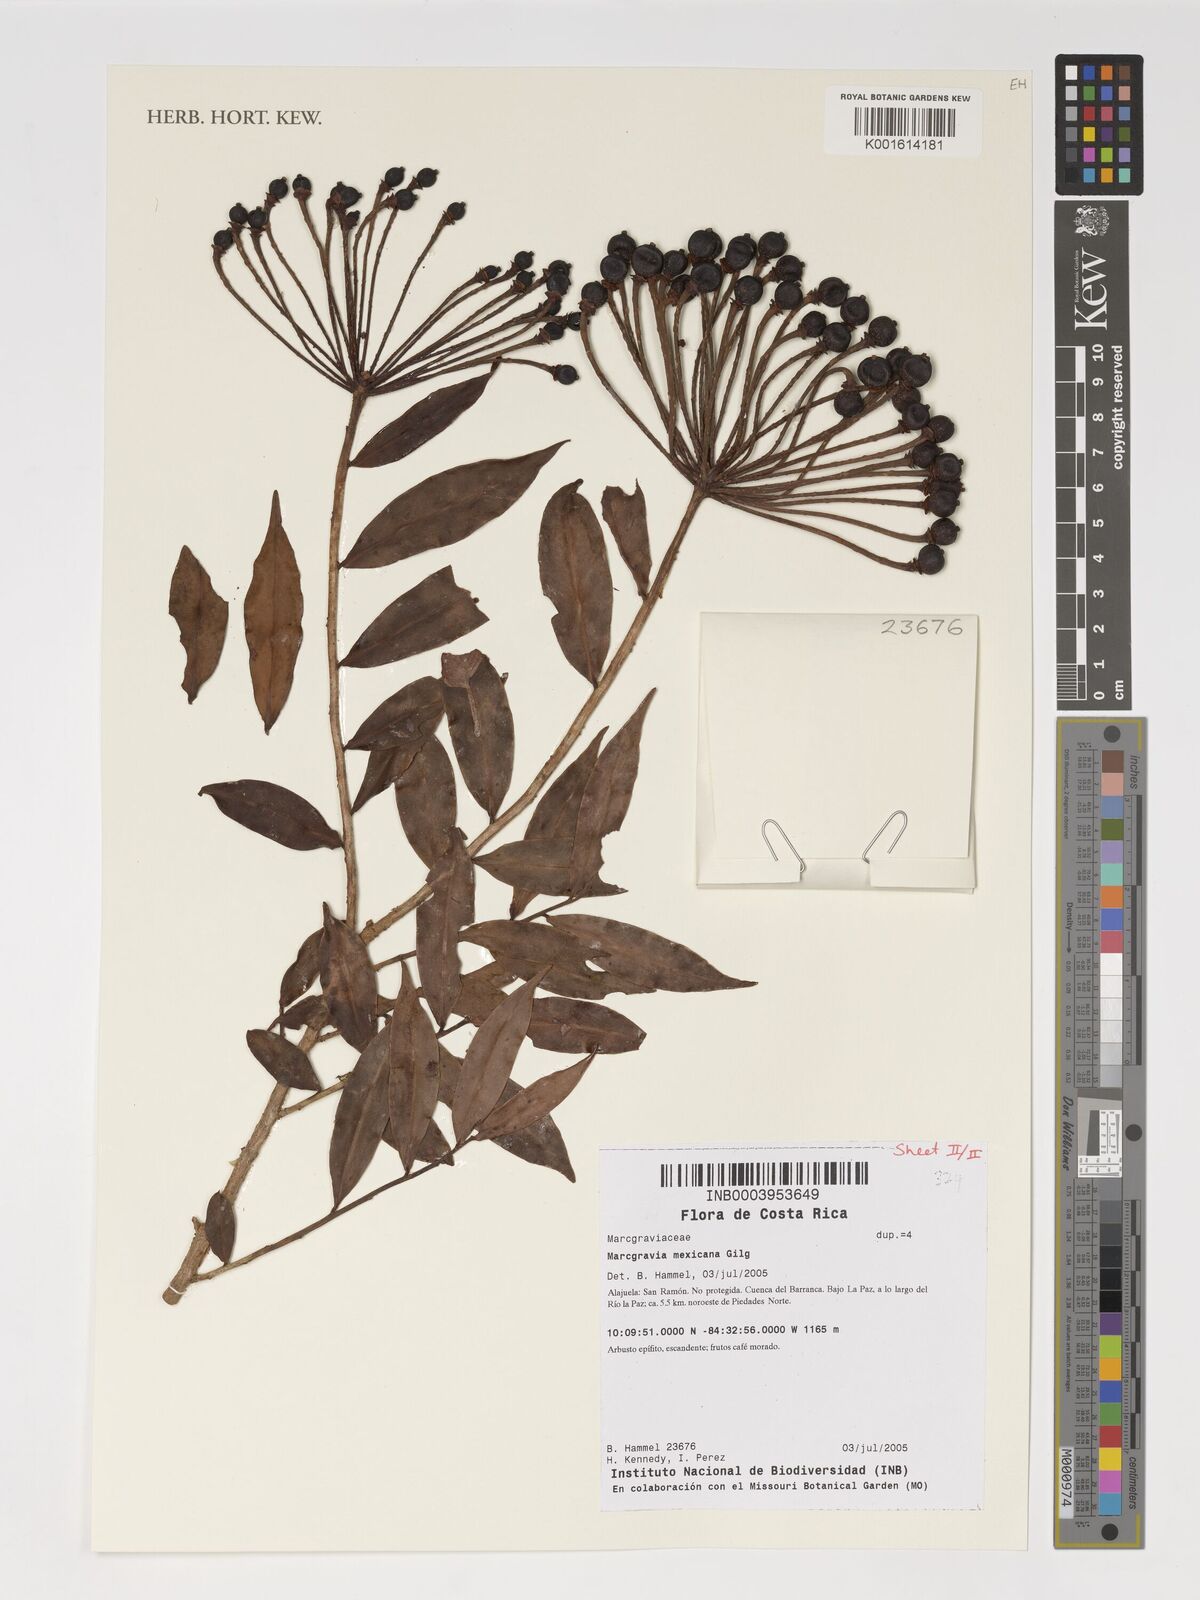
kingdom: Plantae
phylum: Tracheophyta
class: Magnoliopsida
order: Ericales
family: Marcgraviaceae
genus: Marcgravia
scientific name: Marcgravia mexicana
